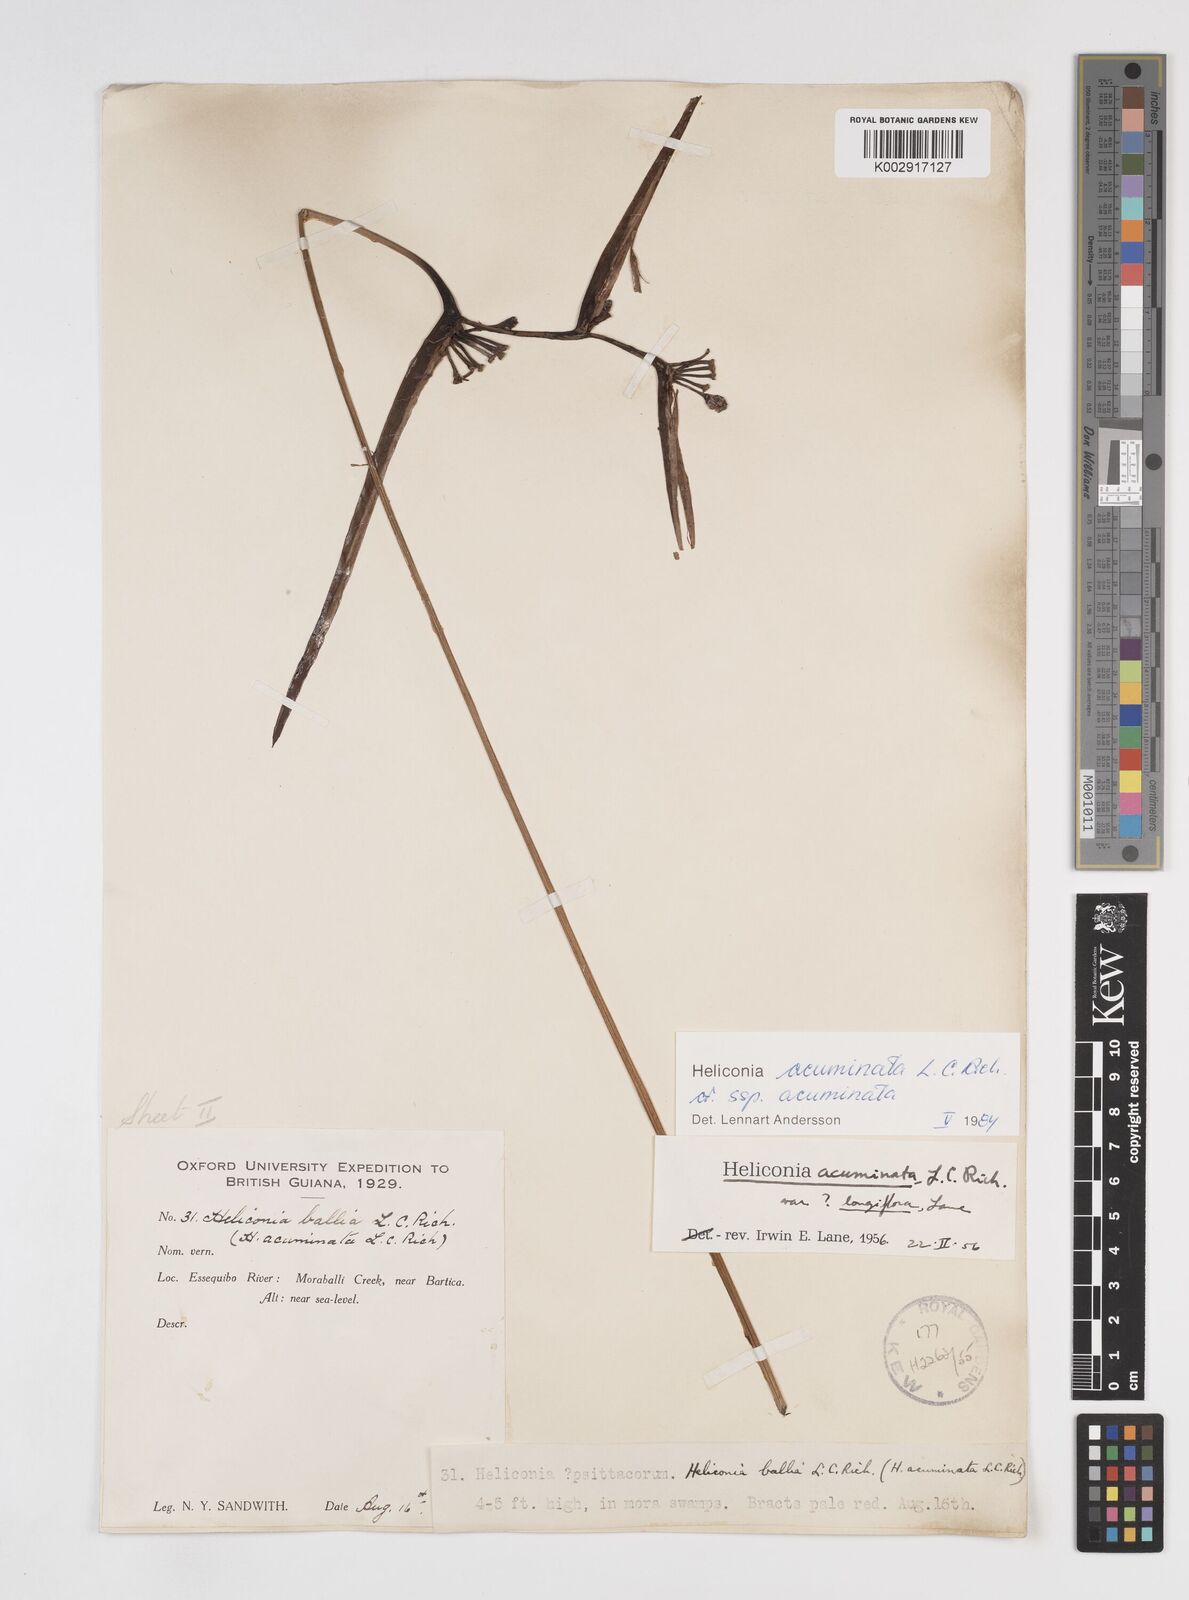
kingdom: Plantae
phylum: Tracheophyta
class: Liliopsida
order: Zingiberales
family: Heliconiaceae
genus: Heliconia
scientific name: Heliconia acuminata
